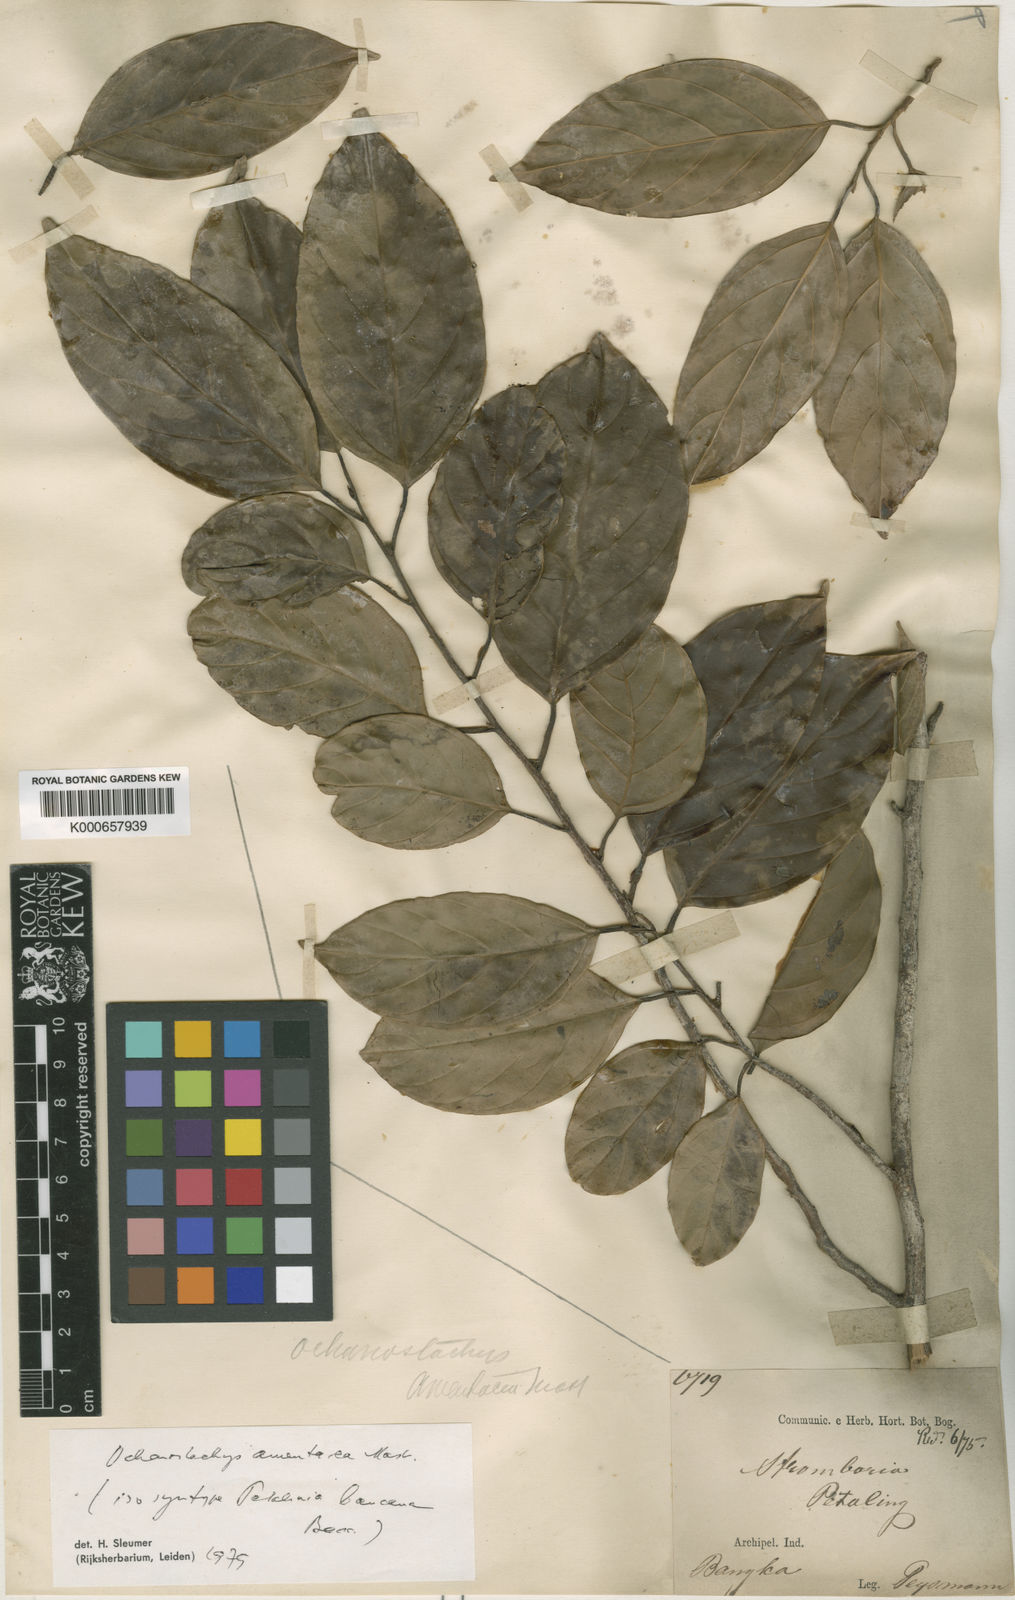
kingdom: Plantae
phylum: Tracheophyta
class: Magnoliopsida
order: Santalales
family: Coulaceae
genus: Ochanostachys
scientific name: Ochanostachys amentacea
